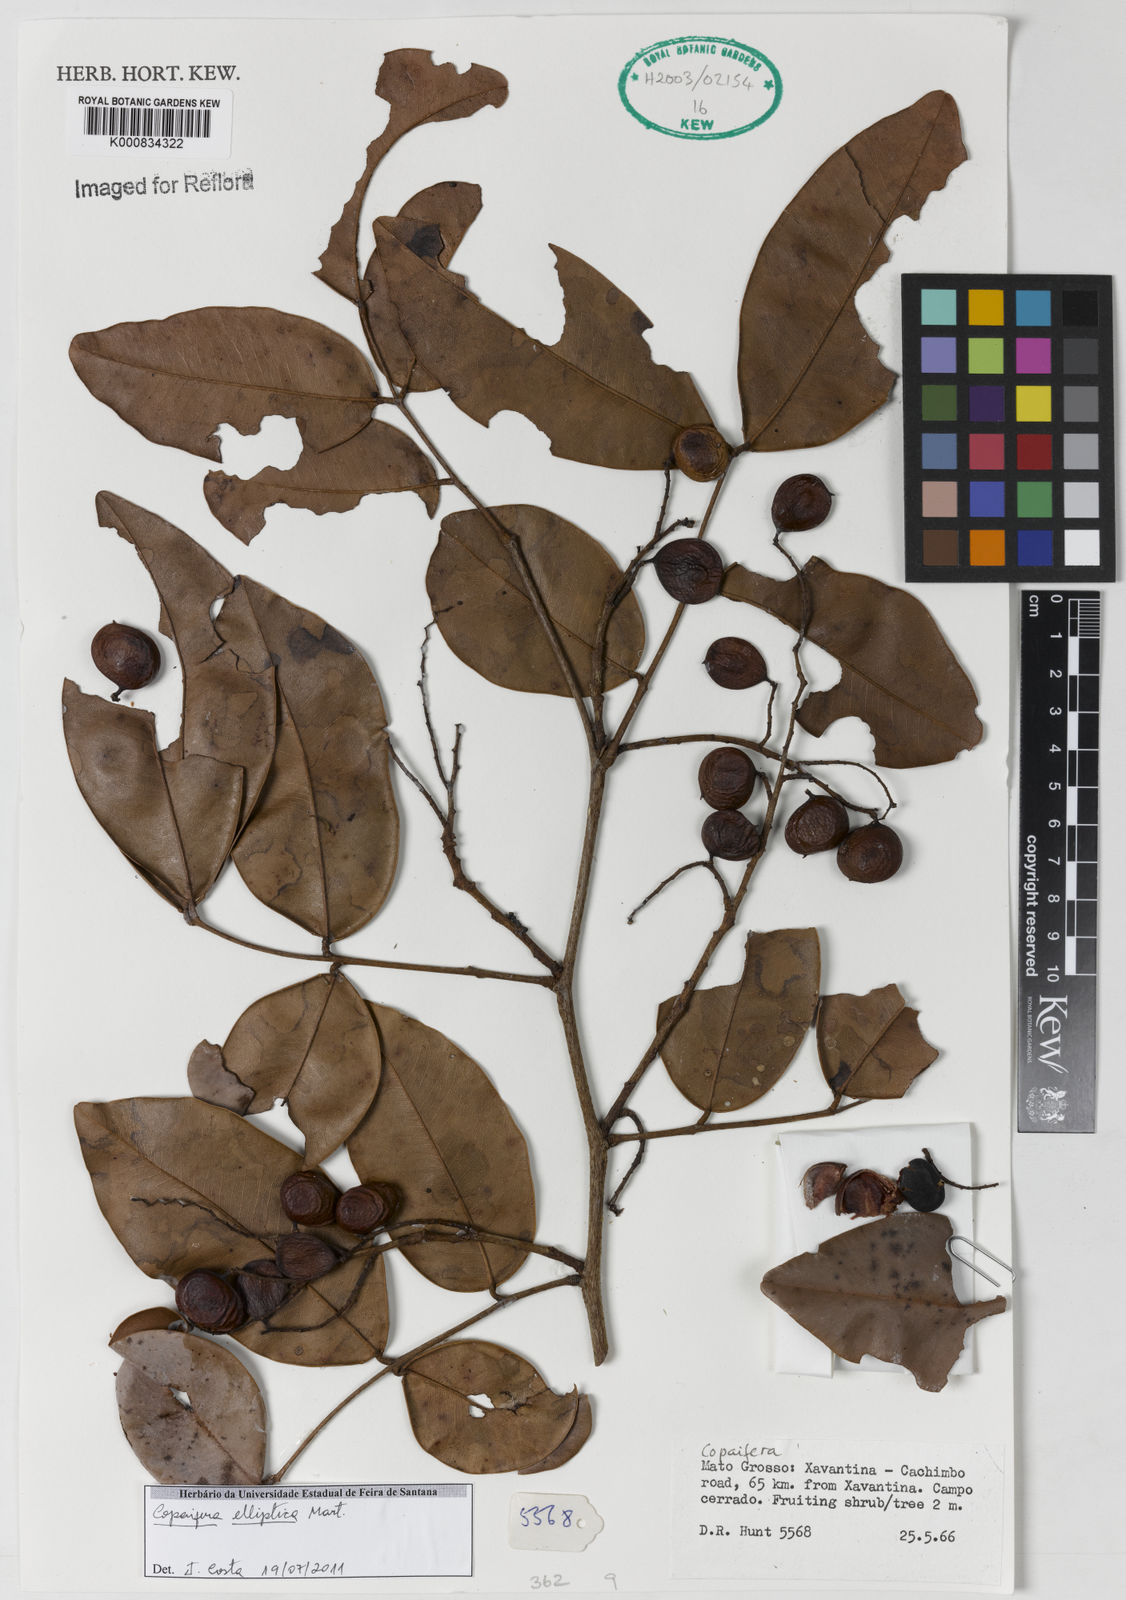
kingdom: Plantae
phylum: Tracheophyta
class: Magnoliopsida
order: Fabales
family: Fabaceae
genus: Copaifera
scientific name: Copaifera elliptica
